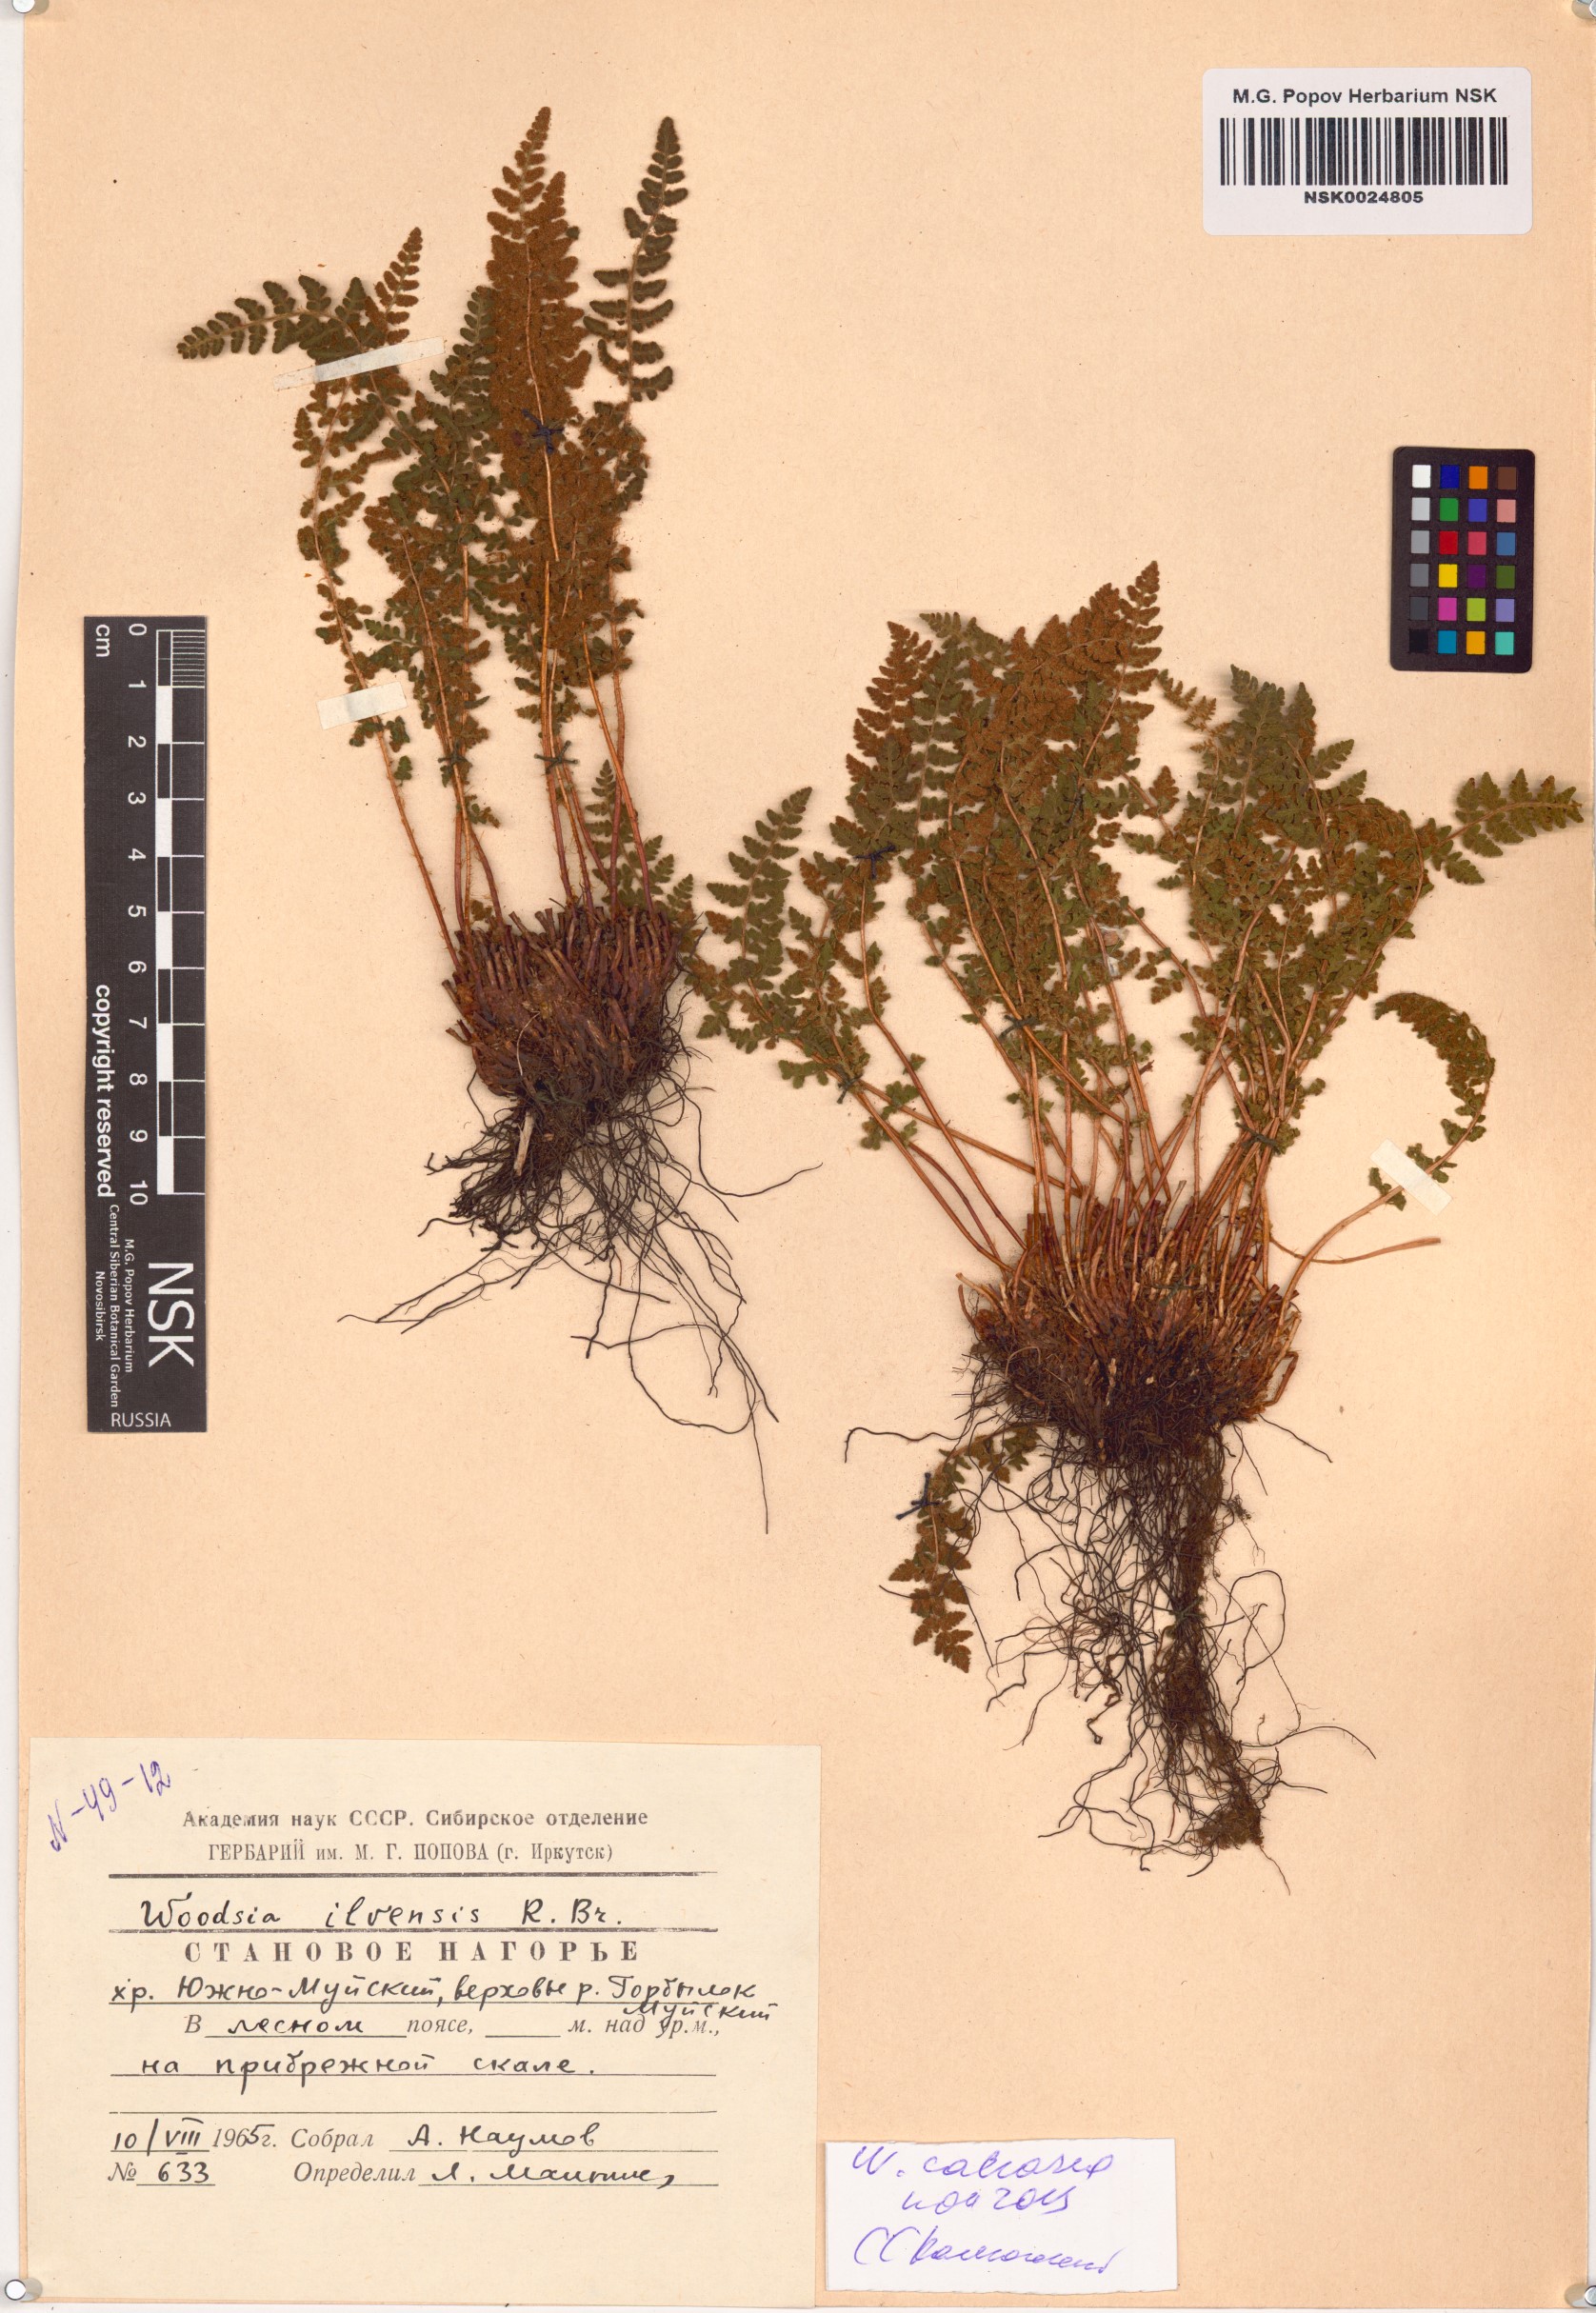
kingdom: Plantae
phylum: Tracheophyta
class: Polypodiopsida
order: Polypodiales
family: Woodsiaceae
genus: Woodsia
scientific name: Woodsia calcarea
